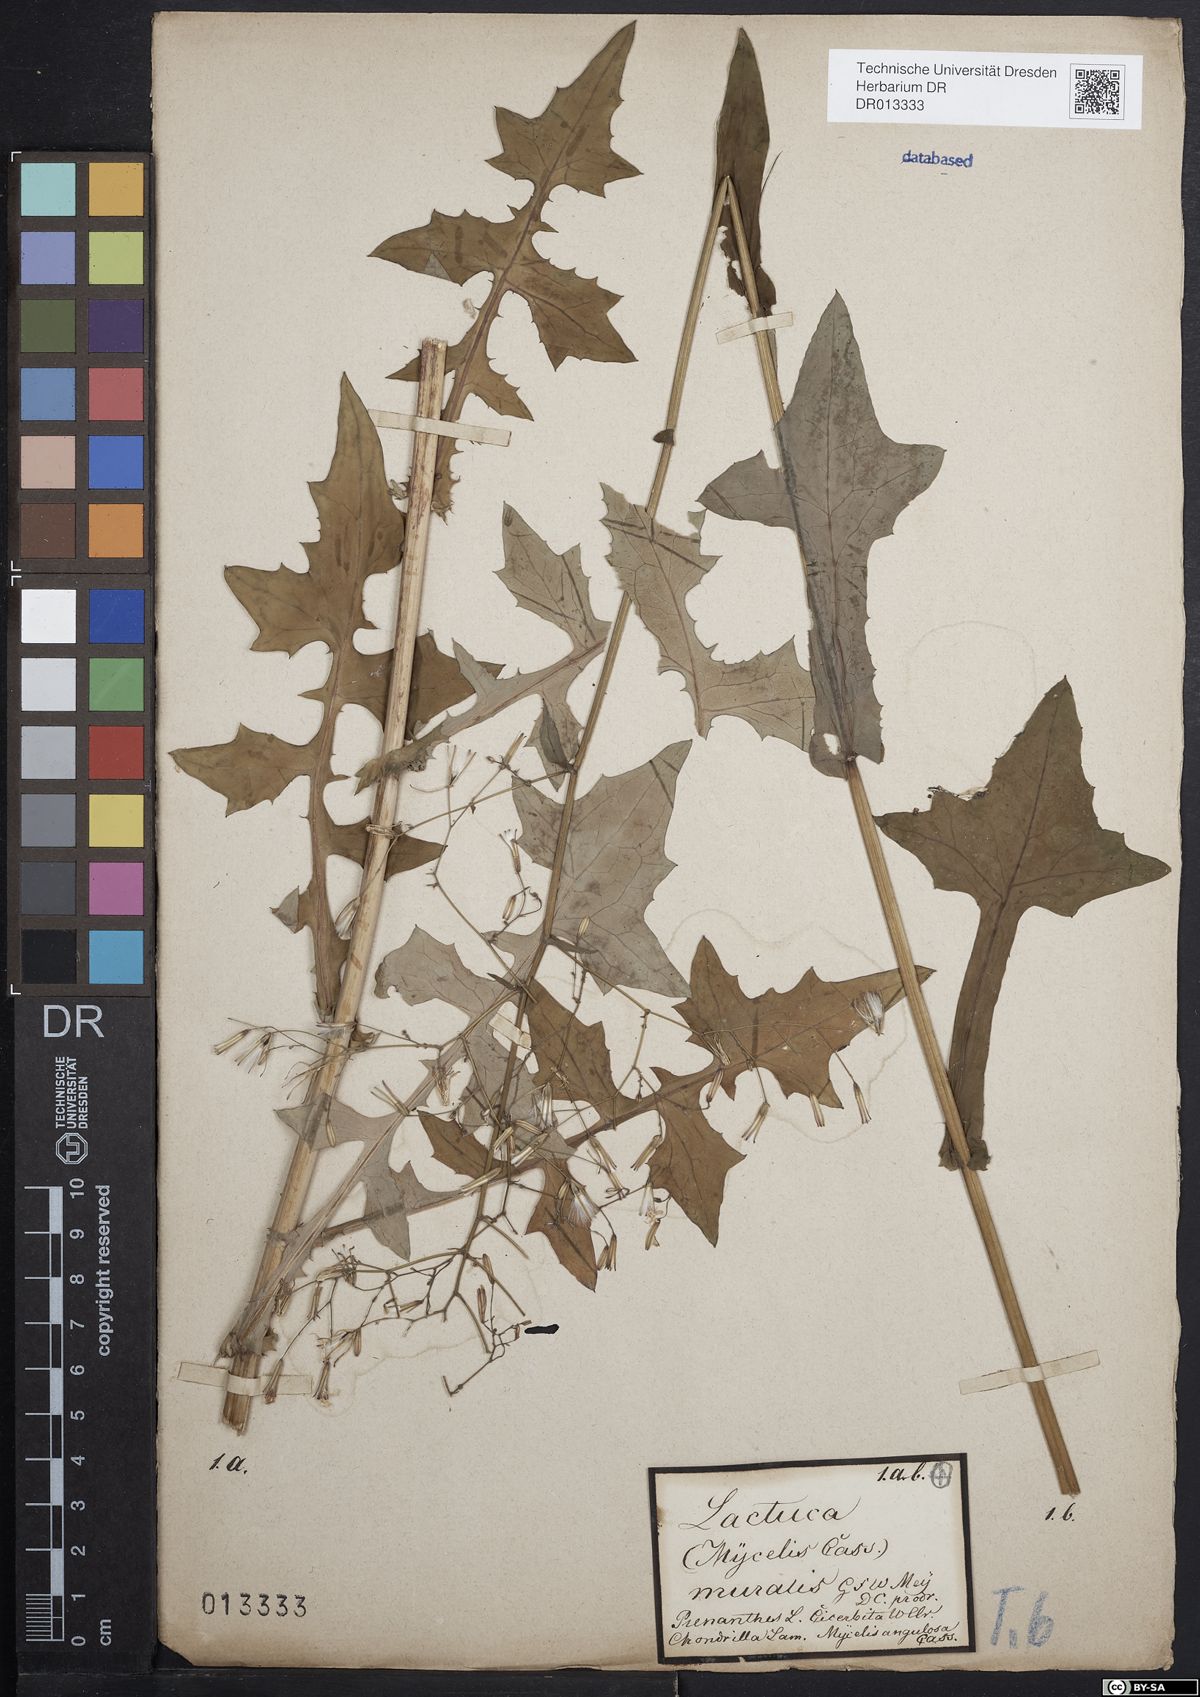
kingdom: Plantae
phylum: Tracheophyta
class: Magnoliopsida
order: Asterales
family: Asteraceae
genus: Mycelis
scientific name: Mycelis muralis
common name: Wall lettuce
